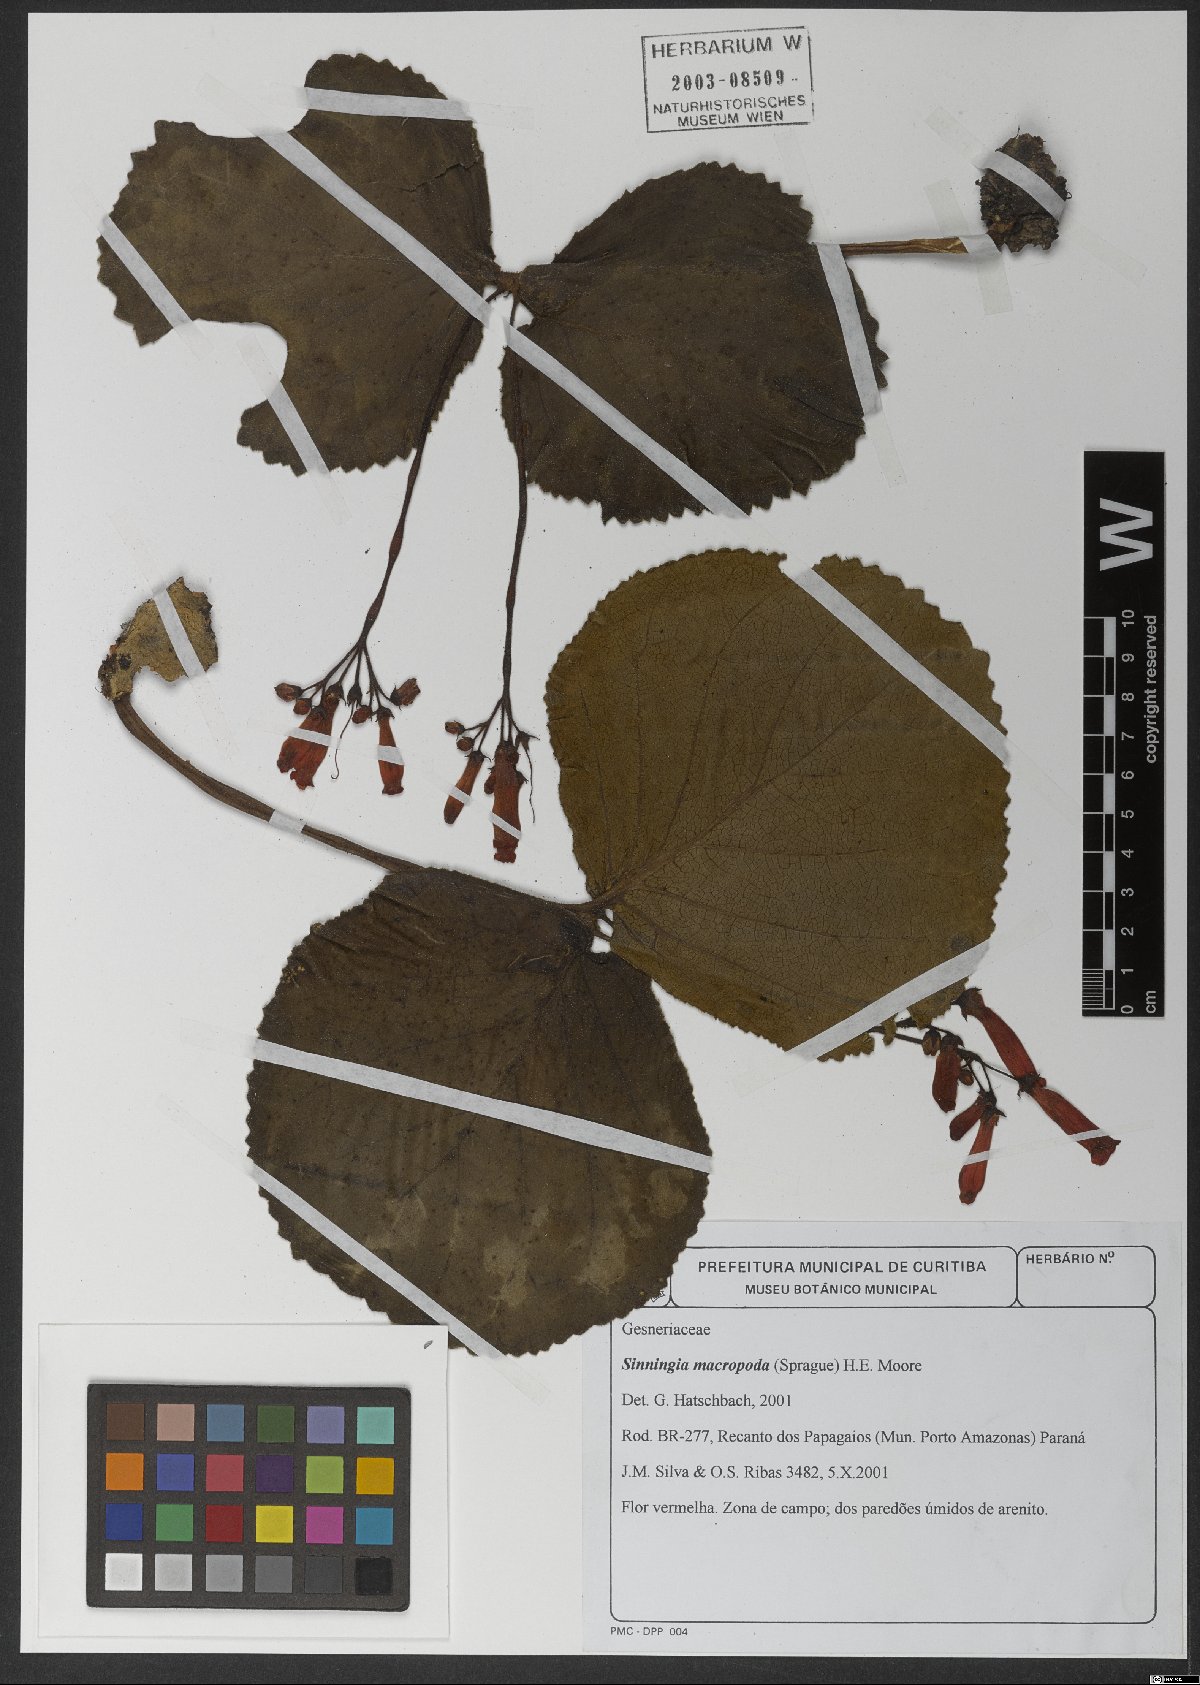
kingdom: Plantae
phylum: Tracheophyta
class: Magnoliopsida
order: Lamiales
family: Gesneriaceae
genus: Sinningia
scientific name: Sinningia macropoda
